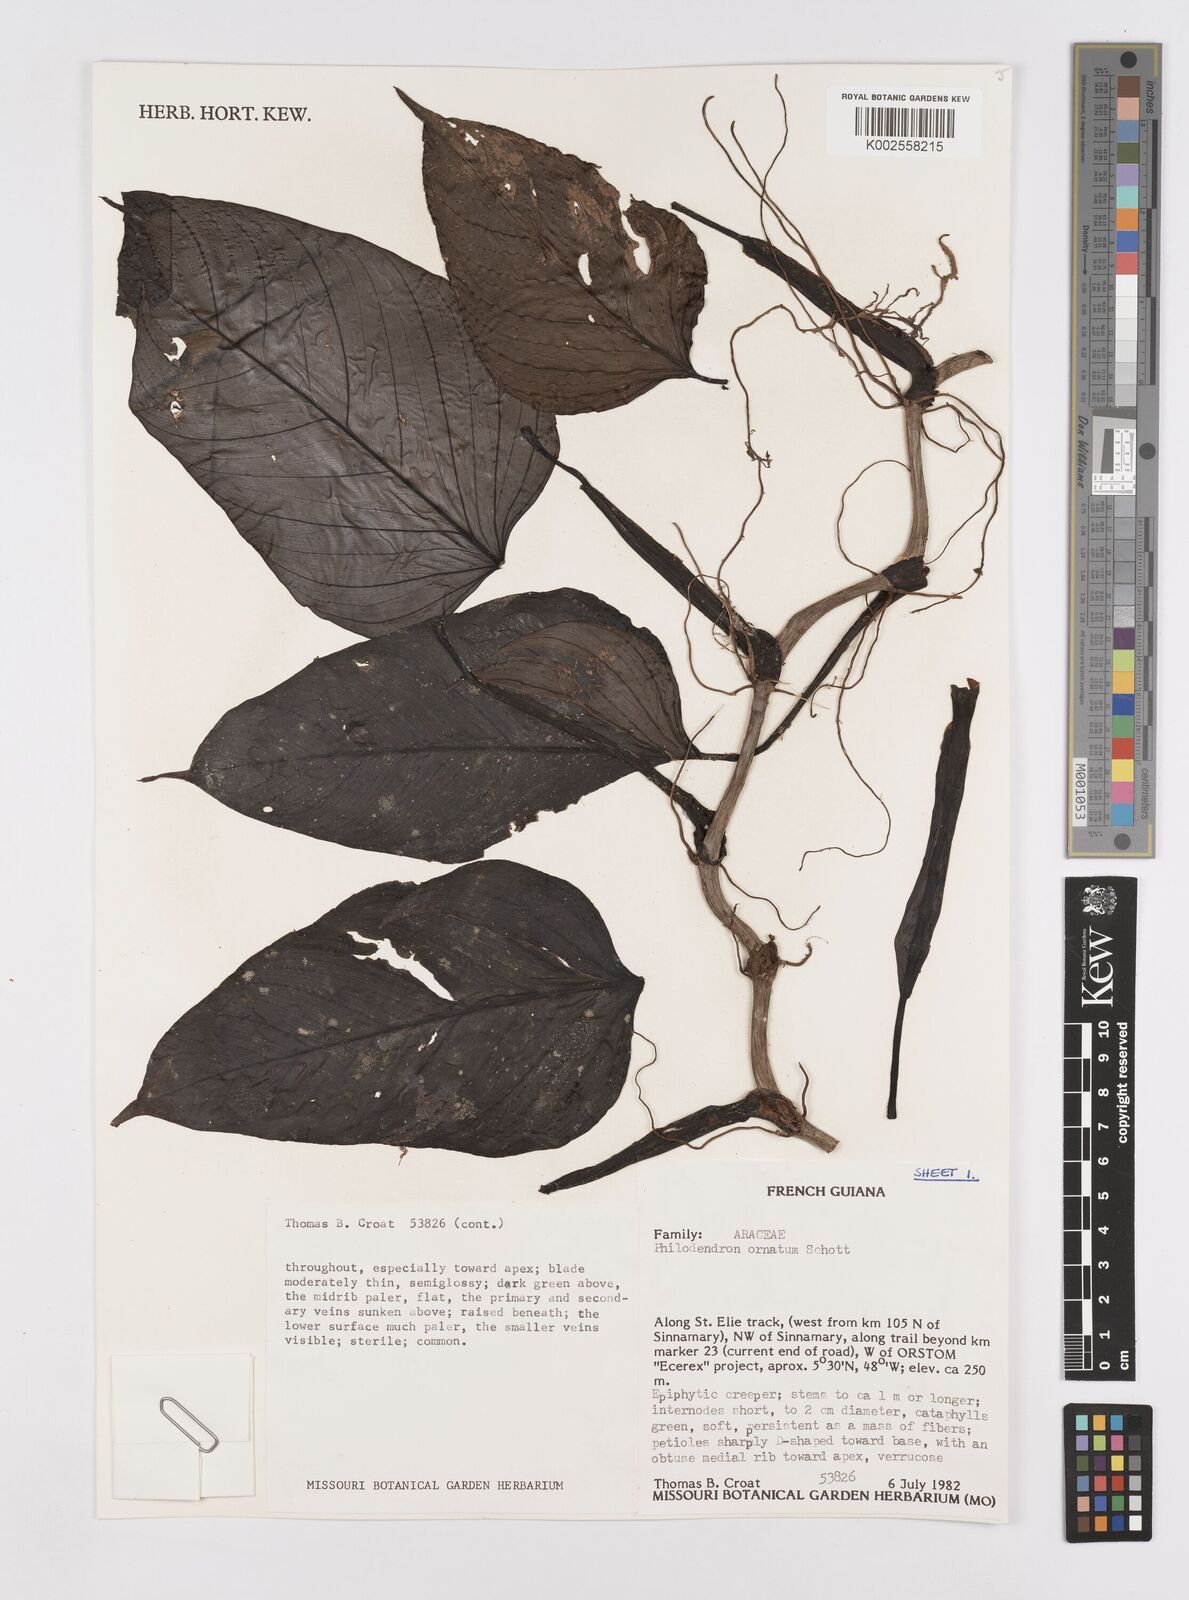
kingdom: Plantae
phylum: Tracheophyta
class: Liliopsida
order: Alismatales
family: Araceae
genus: Philodendron
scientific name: Philodendron ornatum
